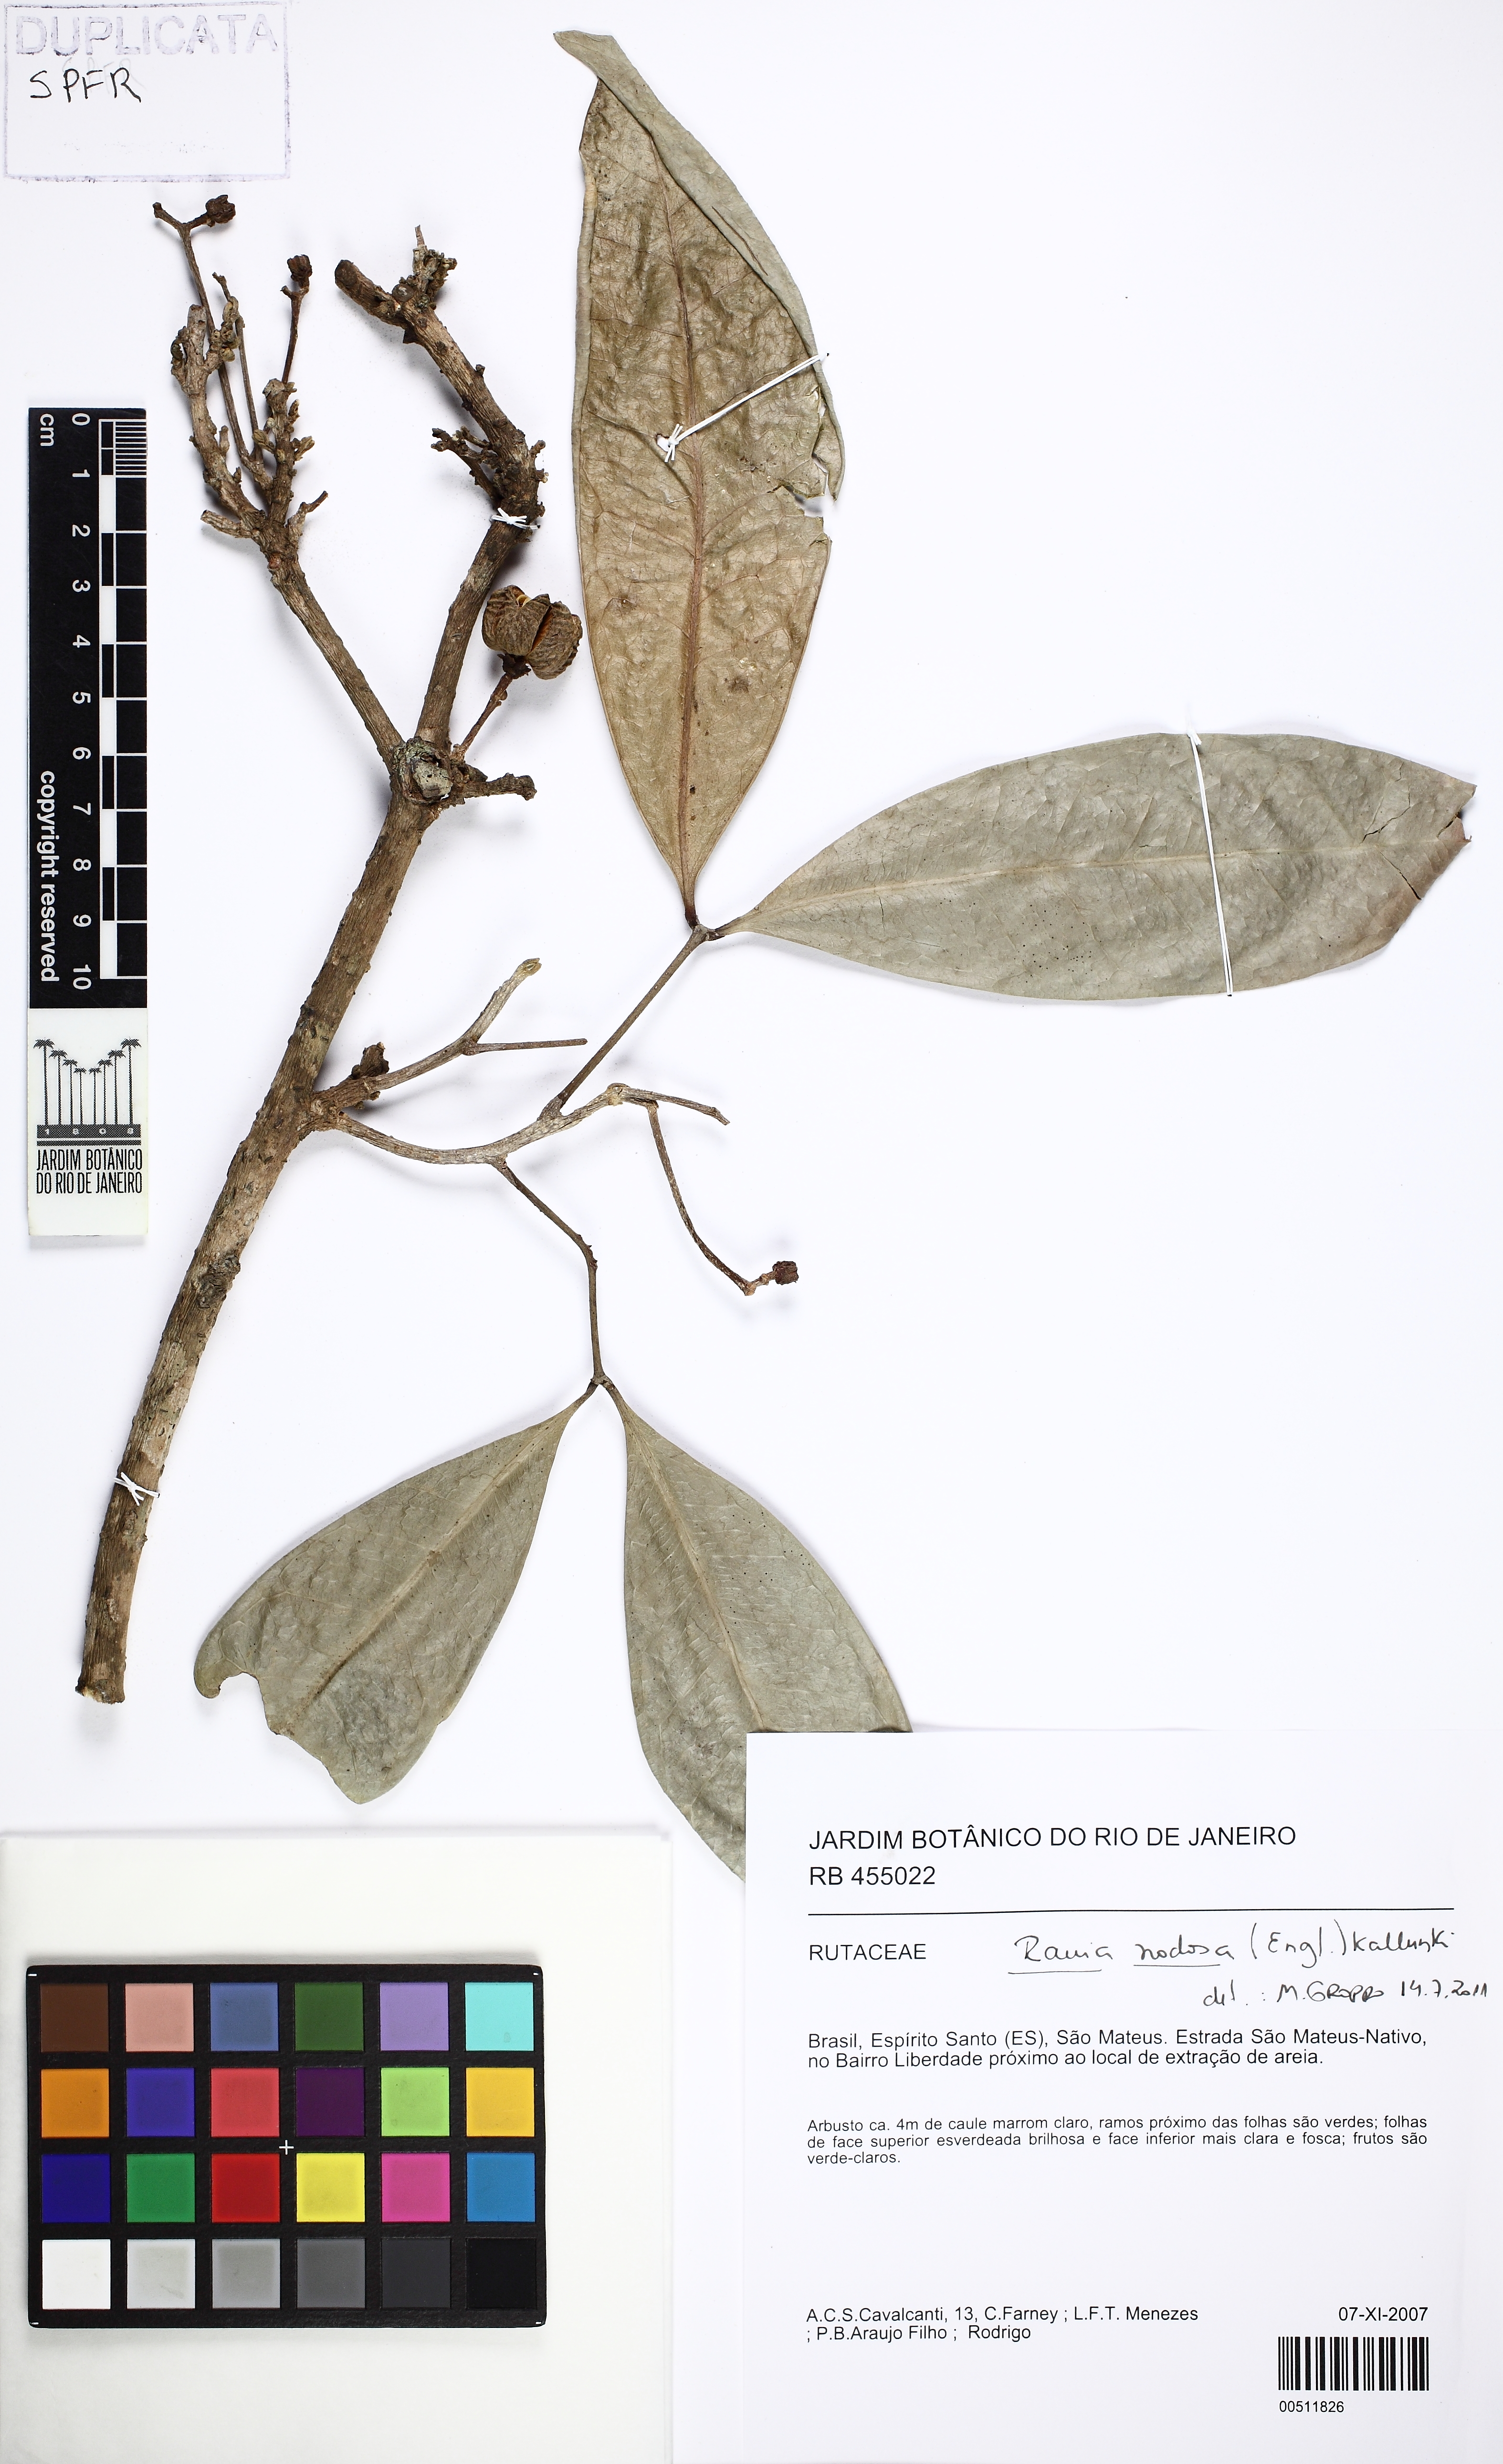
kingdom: Plantae
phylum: Tracheophyta
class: Magnoliopsida
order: Sapindales
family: Rutaceae
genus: Rauia
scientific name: Rauia nodosa
